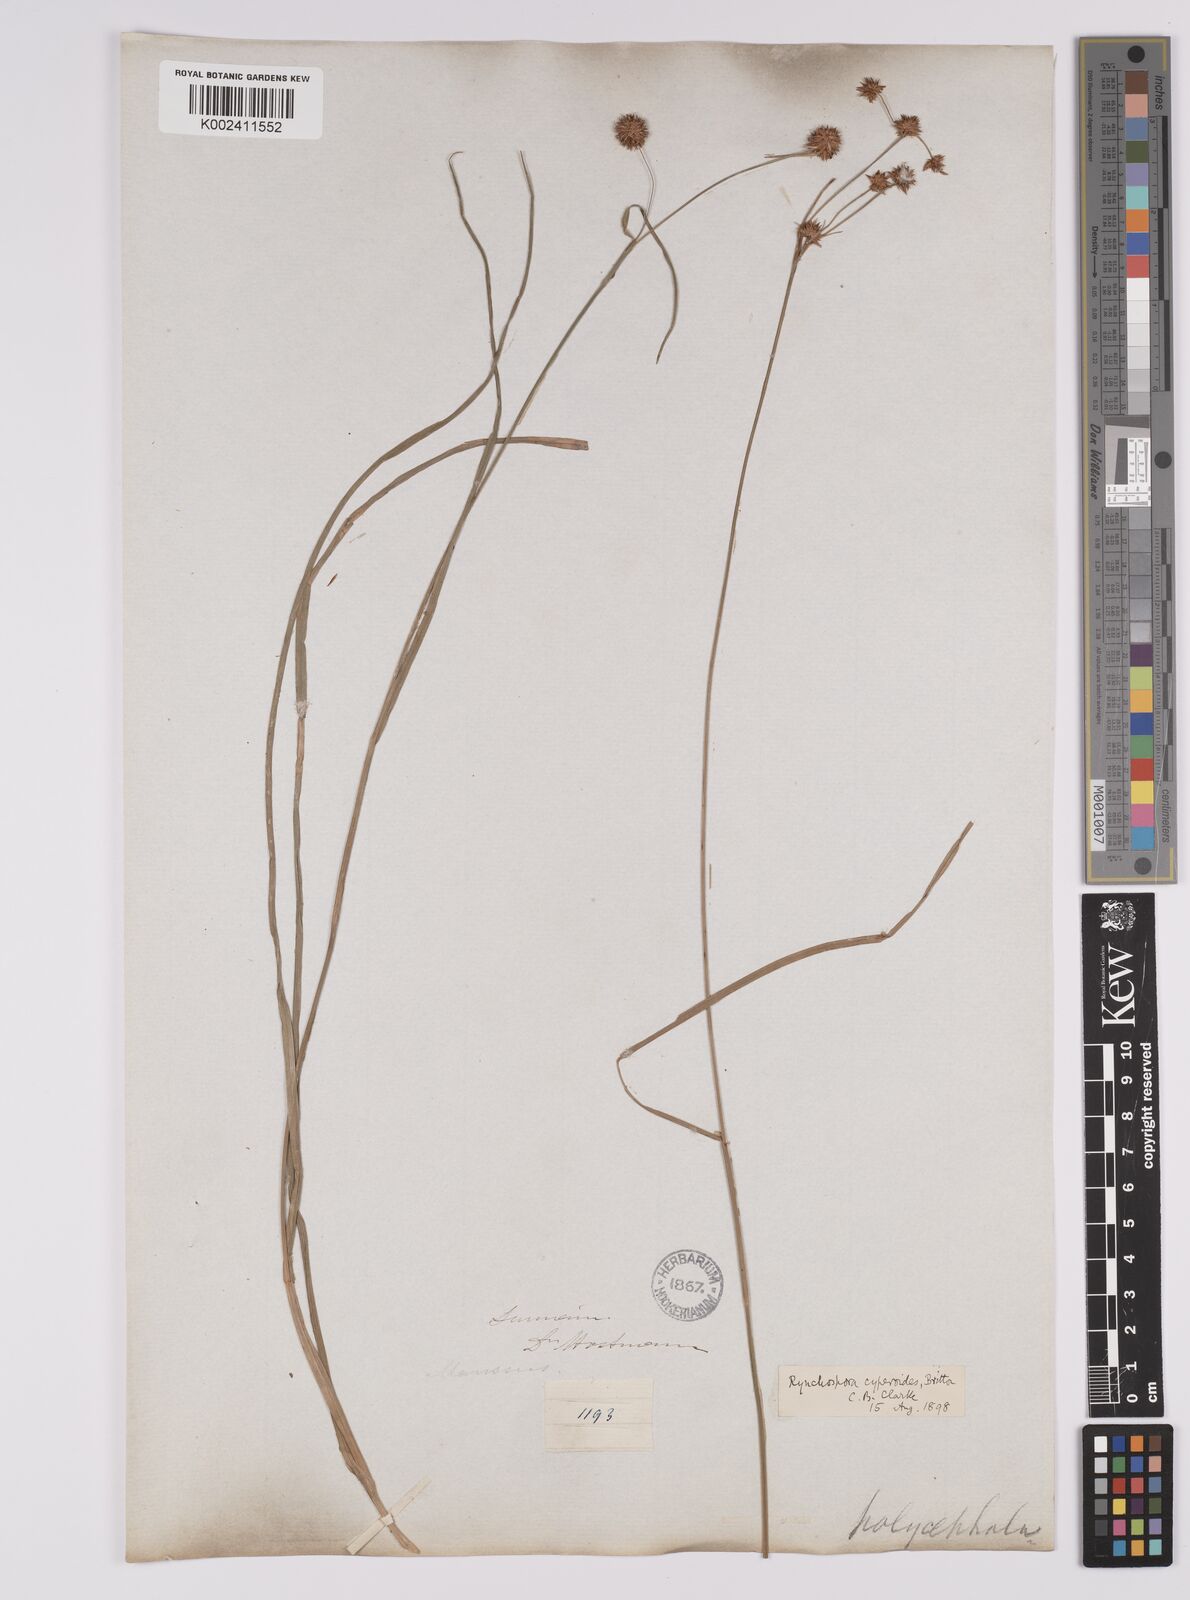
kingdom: Plantae
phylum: Tracheophyta
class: Liliopsida
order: Poales
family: Cyperaceae
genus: Rhynchospora
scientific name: Rhynchospora holoschoenoides
